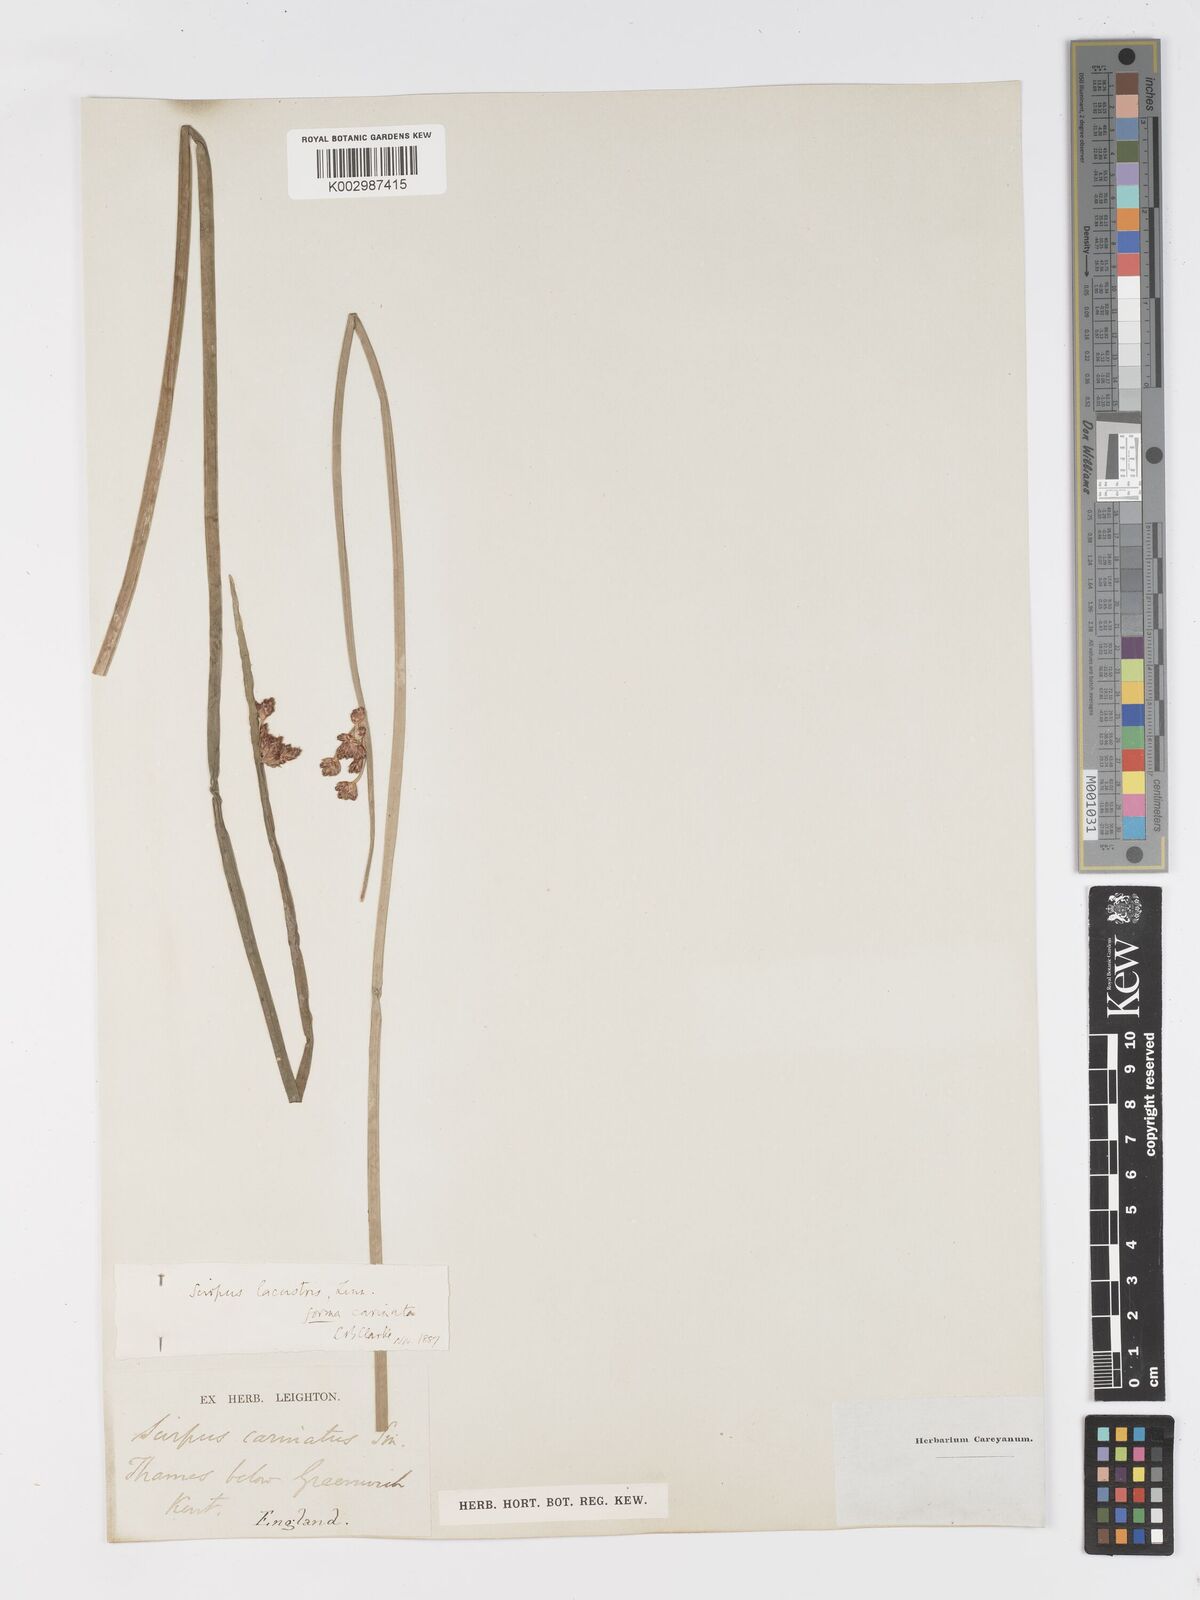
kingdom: Plantae
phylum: Tracheophyta
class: Liliopsida
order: Poales
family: Cyperaceae
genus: Schoenoplectus
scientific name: Schoenoplectus lacustris
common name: Common club-rush
